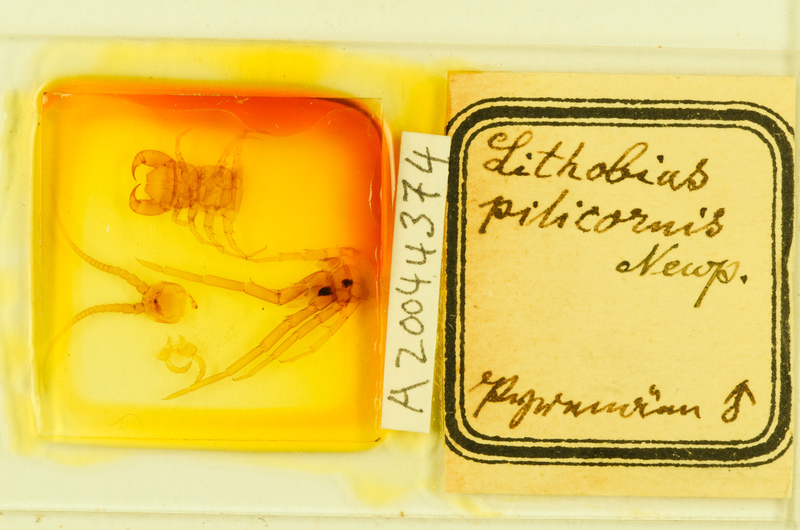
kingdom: Animalia
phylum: Arthropoda
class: Chilopoda
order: Lithobiomorpha
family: Lithobiidae
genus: Lithobius
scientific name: Lithobius pilicornis
